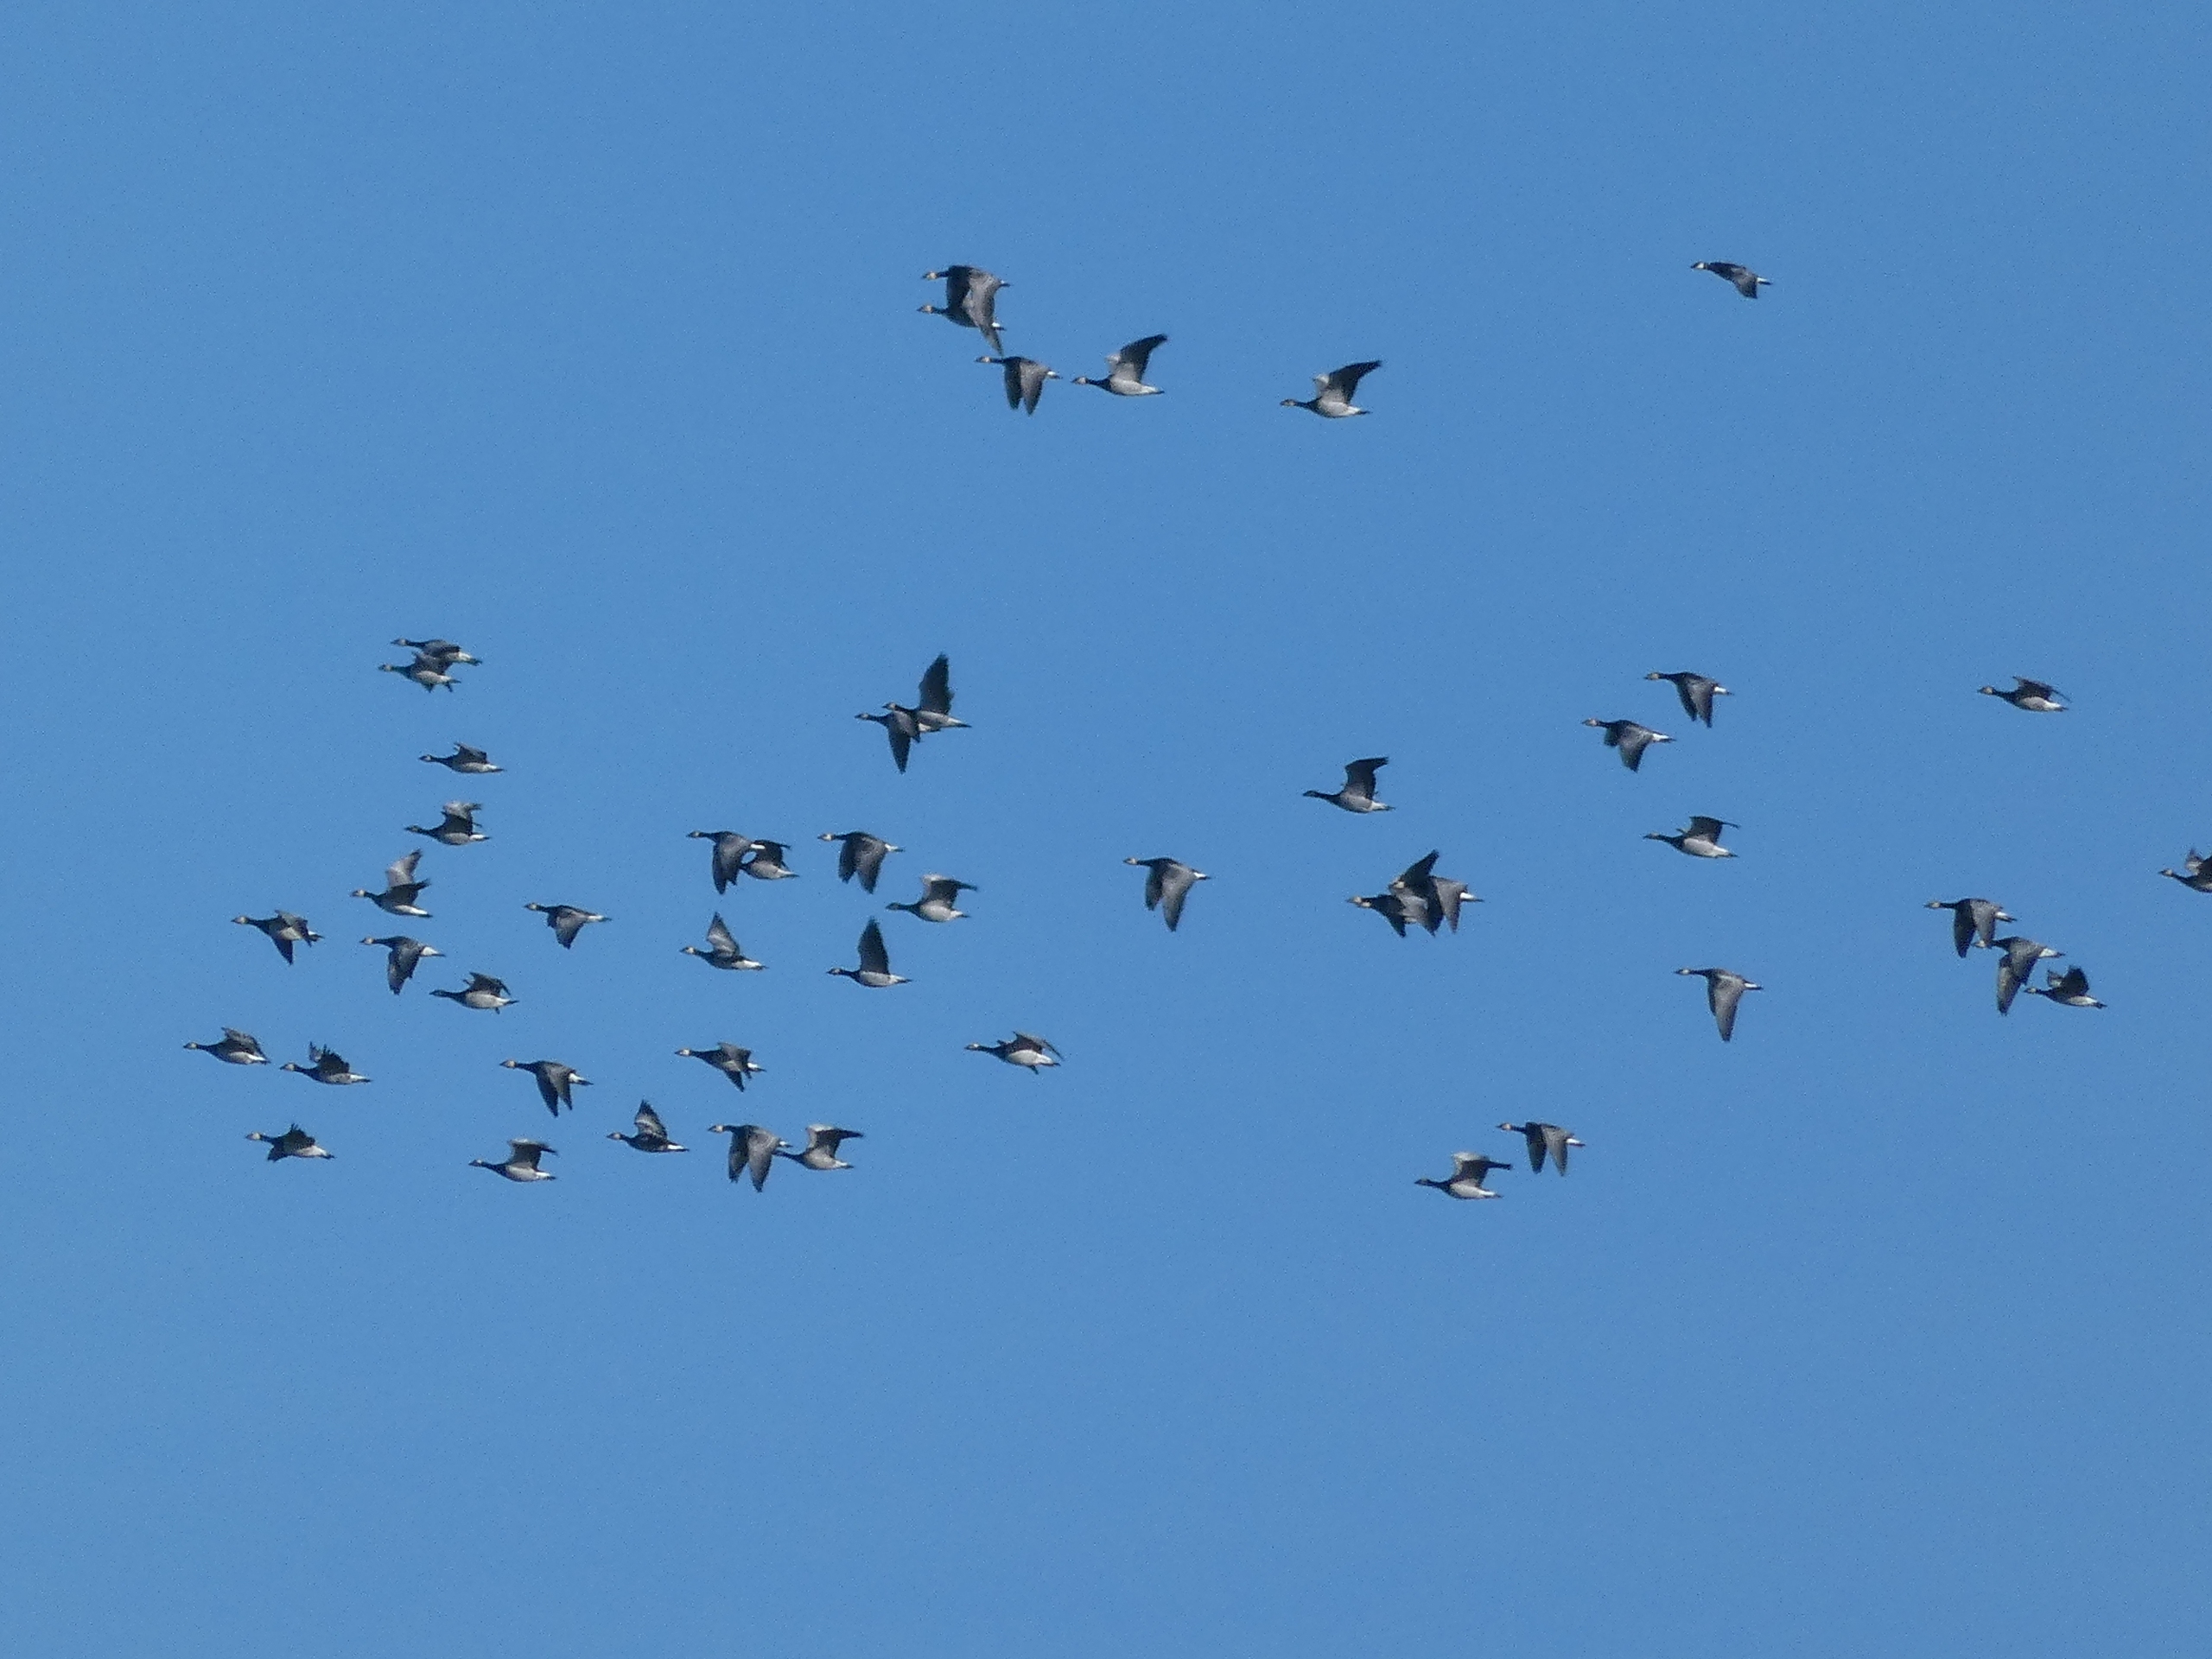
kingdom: Animalia
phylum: Chordata
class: Aves
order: Anseriformes
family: Anatidae
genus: Branta
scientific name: Branta leucopsis
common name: Bramgås
